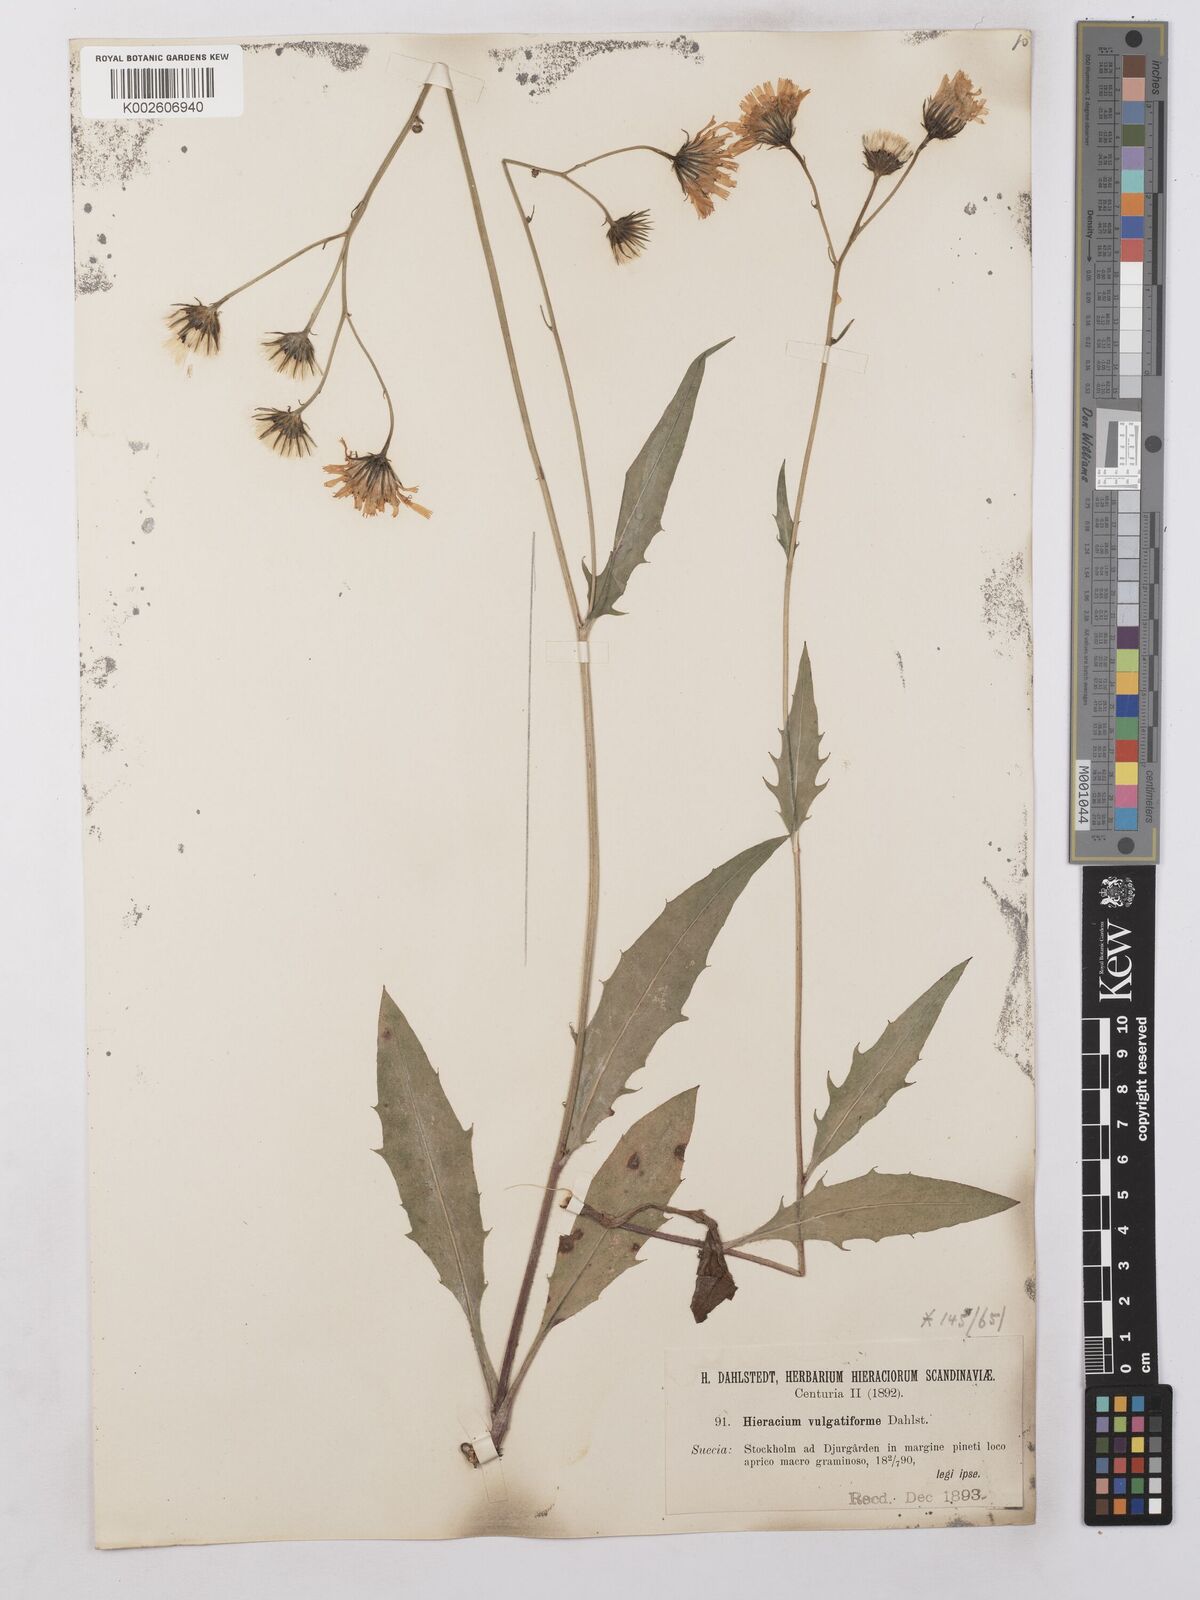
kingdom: Plantae
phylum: Tracheophyta
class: Magnoliopsida
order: Asterales
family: Asteraceae
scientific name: Asteraceae
